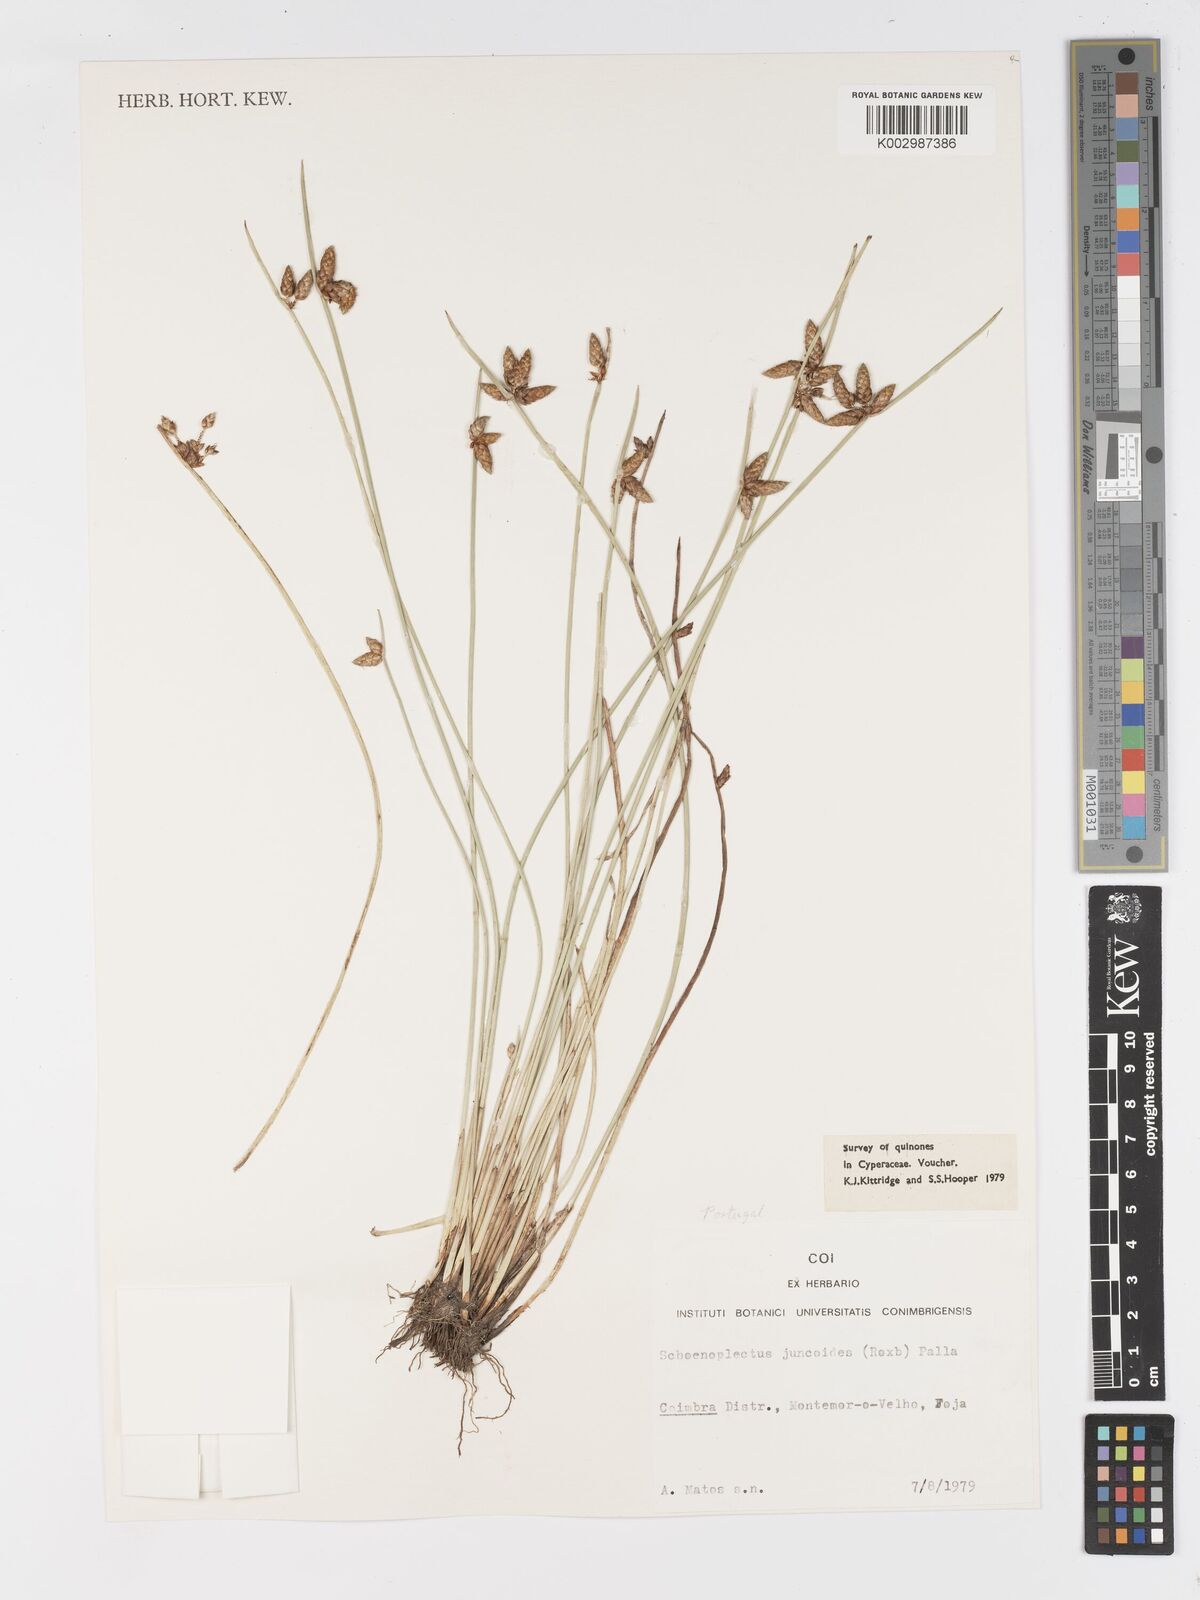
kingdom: Plantae
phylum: Tracheophyta
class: Liliopsida
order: Poales
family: Cyperaceae
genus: Schoenoplectiella
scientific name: Schoenoplectiella juncoides
